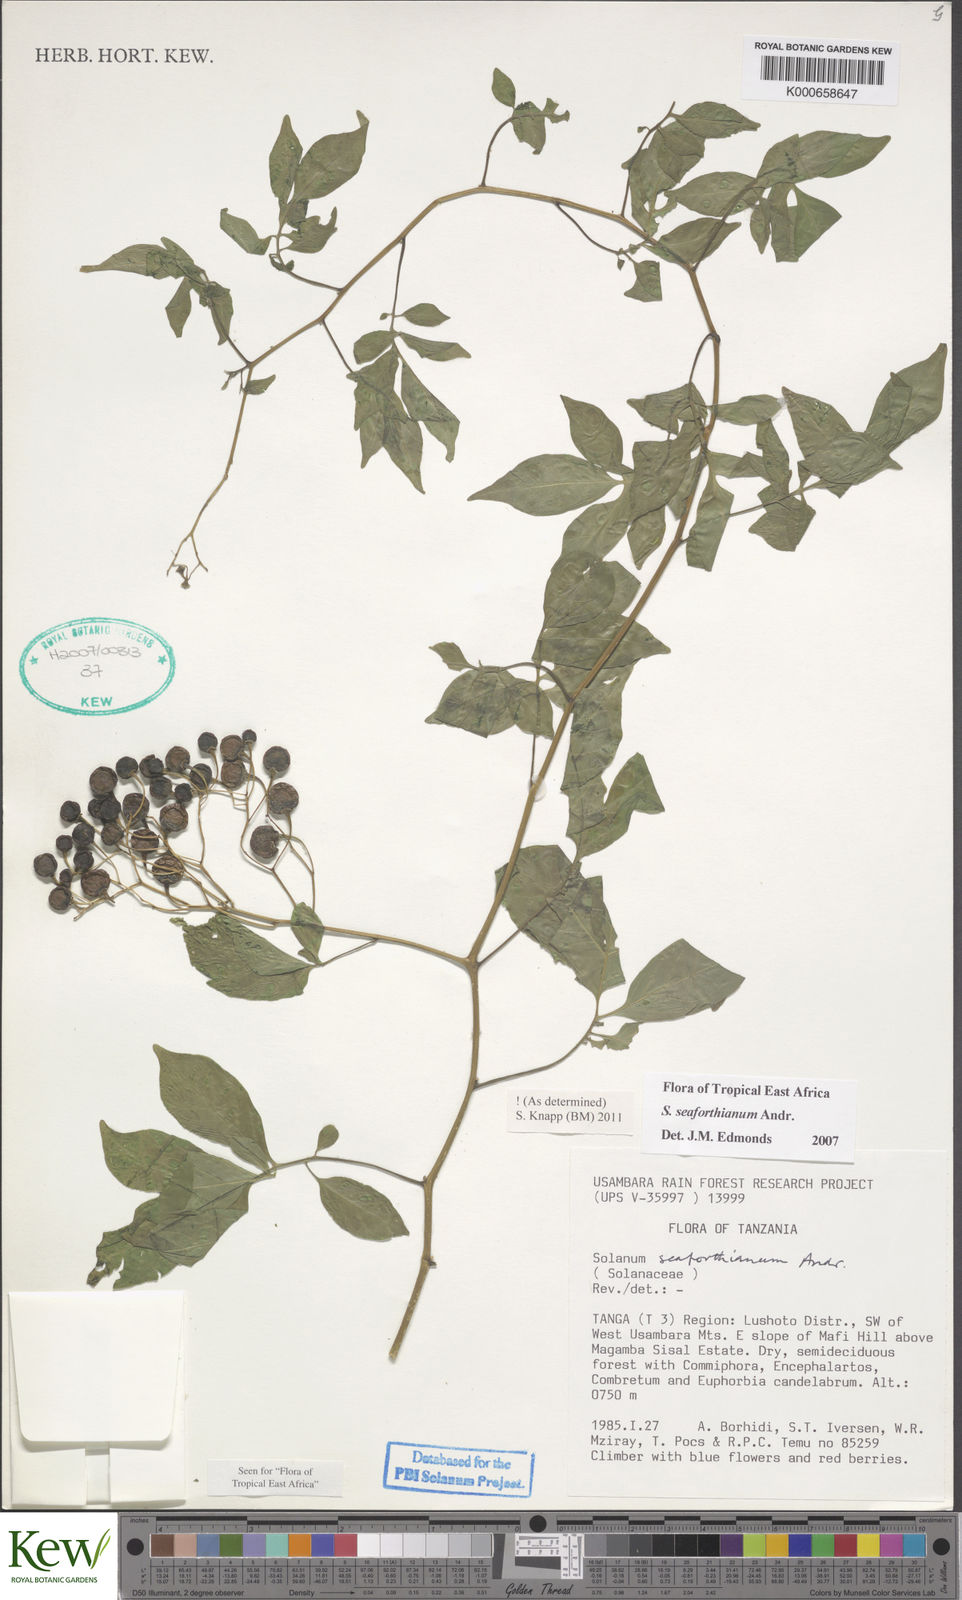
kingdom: Plantae
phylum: Tracheophyta
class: Magnoliopsida
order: Solanales
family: Solanaceae
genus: Solanum
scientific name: Solanum seaforthianum
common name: Brazilian nightshade
